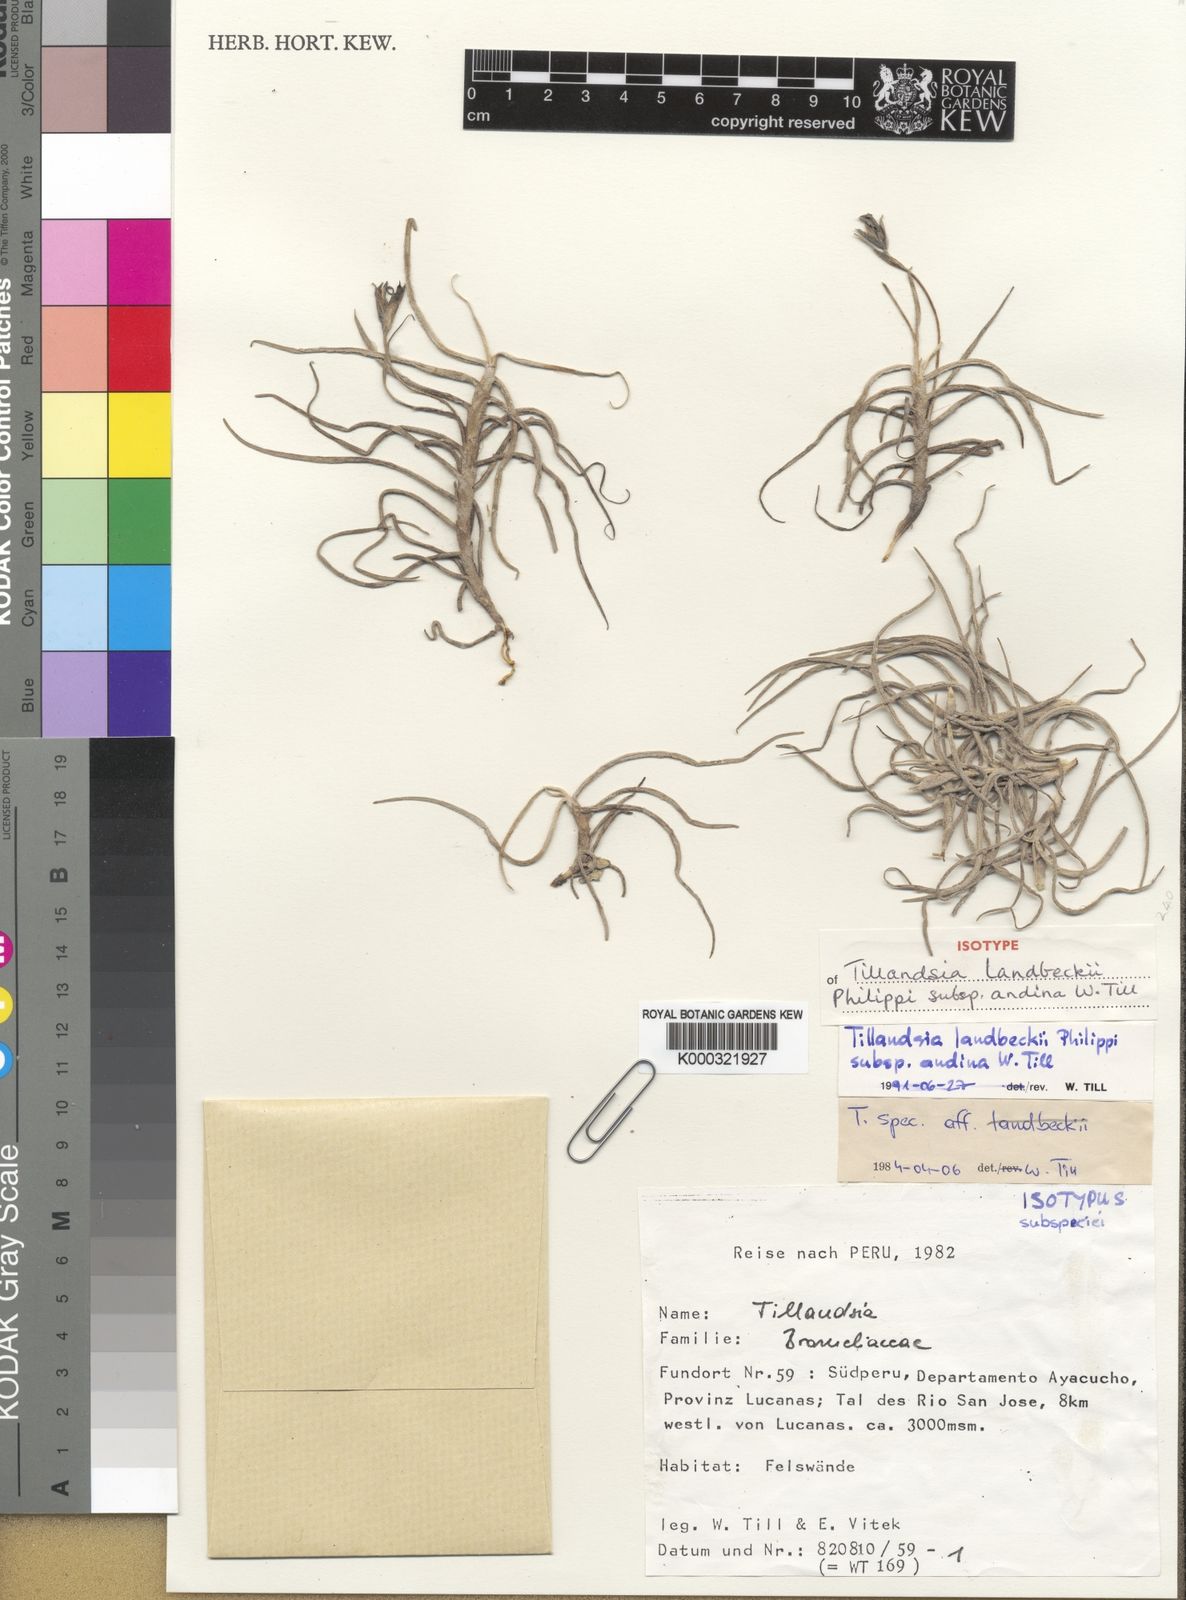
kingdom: Plantae
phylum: Tracheophyta
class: Liliopsida
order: Poales
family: Bromeliaceae
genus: Tillandsia
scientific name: Tillandsia landbeckii
